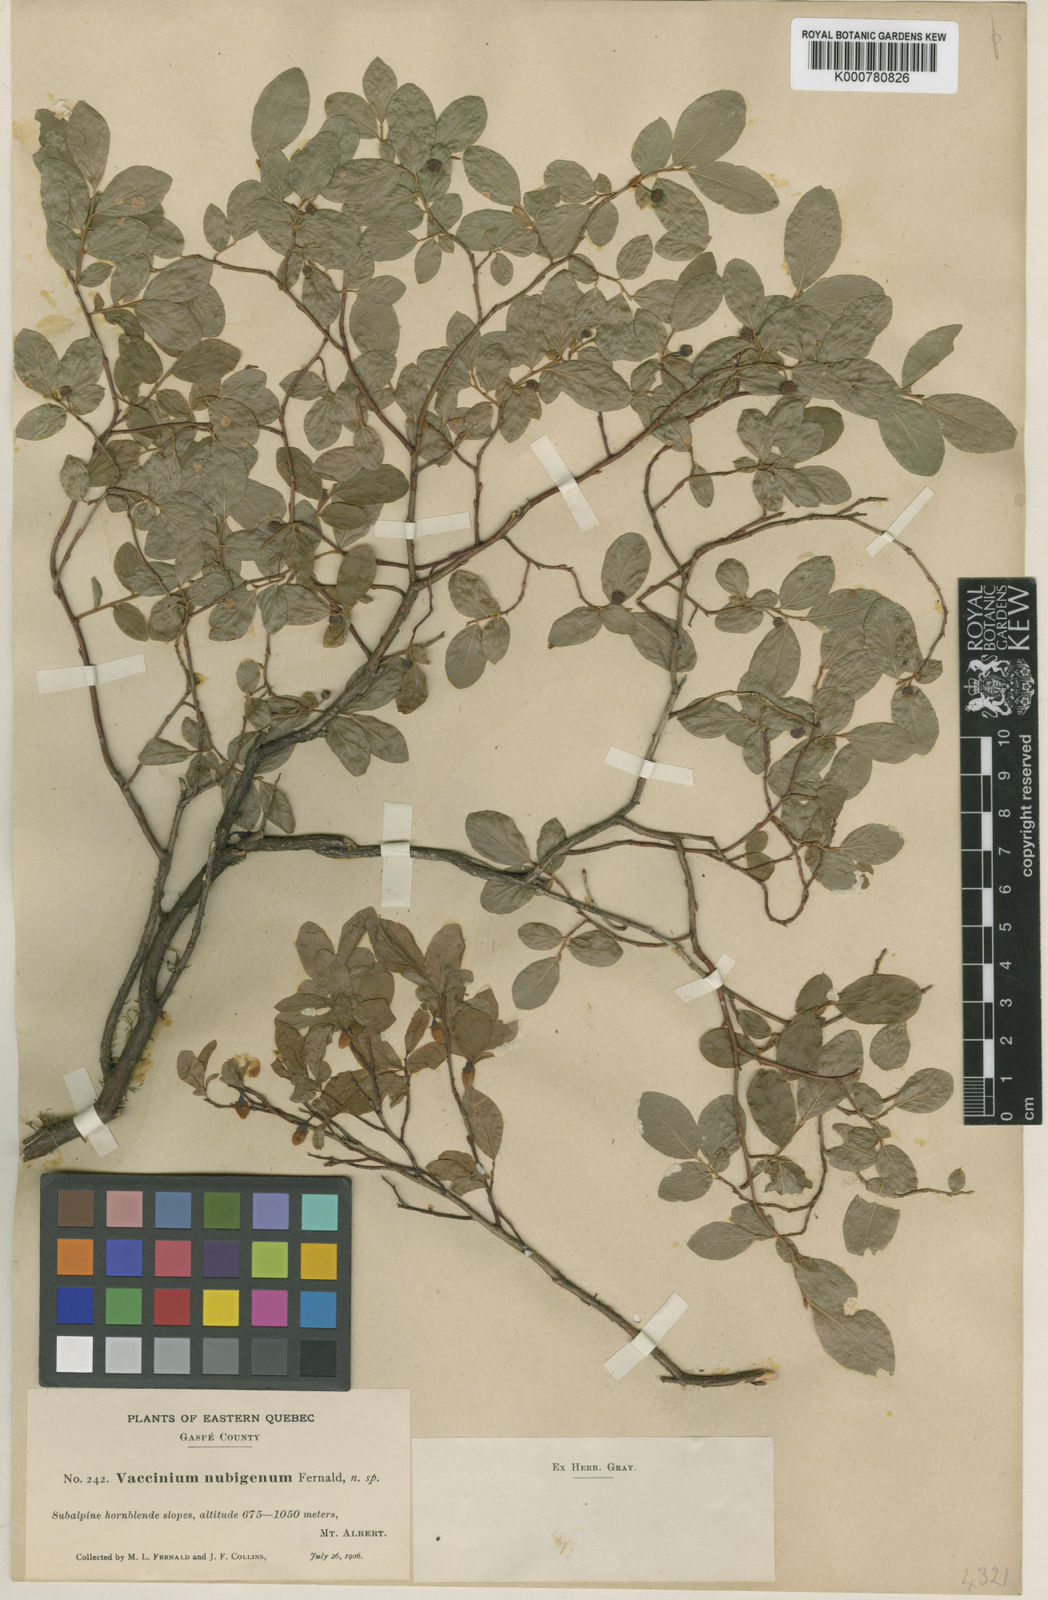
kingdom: Plantae
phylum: Tracheophyta
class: Magnoliopsida
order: Ericales
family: Ericaceae
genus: Vaccinium
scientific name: Vaccinium nubigenum
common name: Newfoundland bilberry
